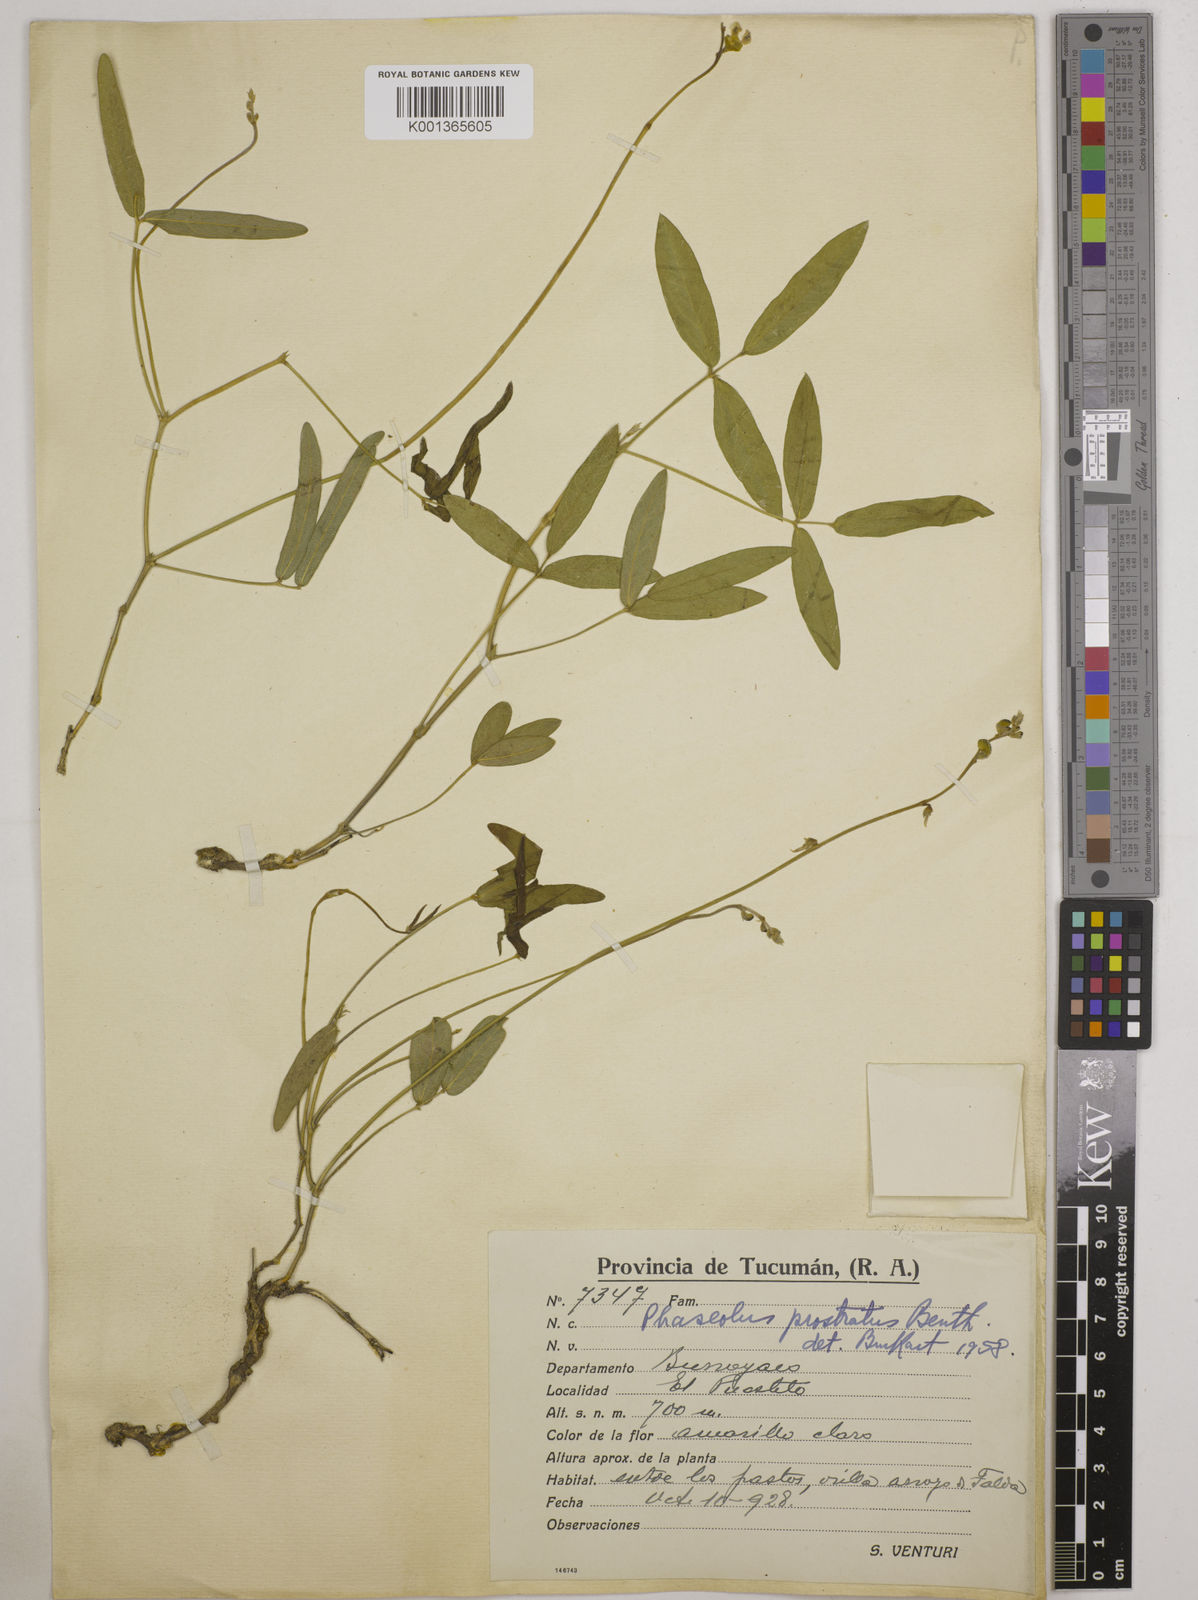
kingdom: Plantae
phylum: Tracheophyta
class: Magnoliopsida
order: Fabales
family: Fabaceae
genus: Macroptilium
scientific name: Macroptilium prostratum
